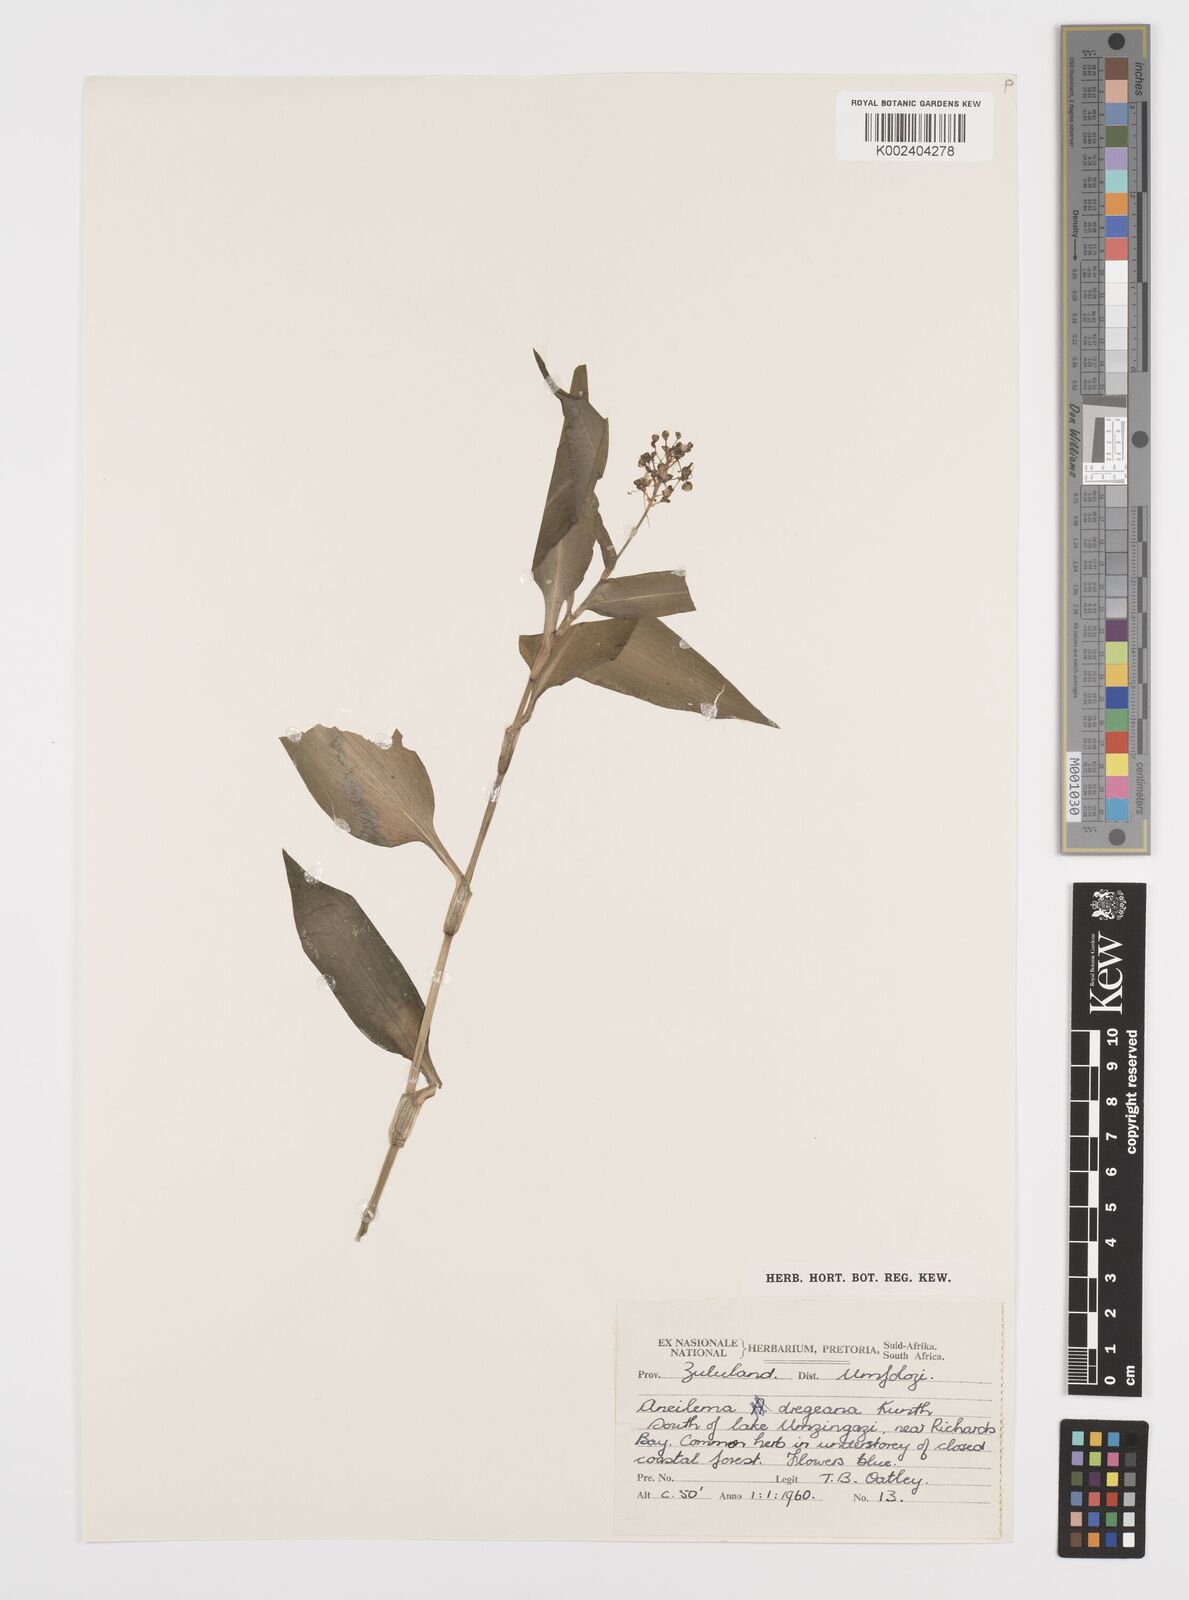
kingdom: Plantae
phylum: Tracheophyta
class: Liliopsida
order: Commelinales
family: Commelinaceae
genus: Aneilema
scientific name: Aneilema dregeanum
